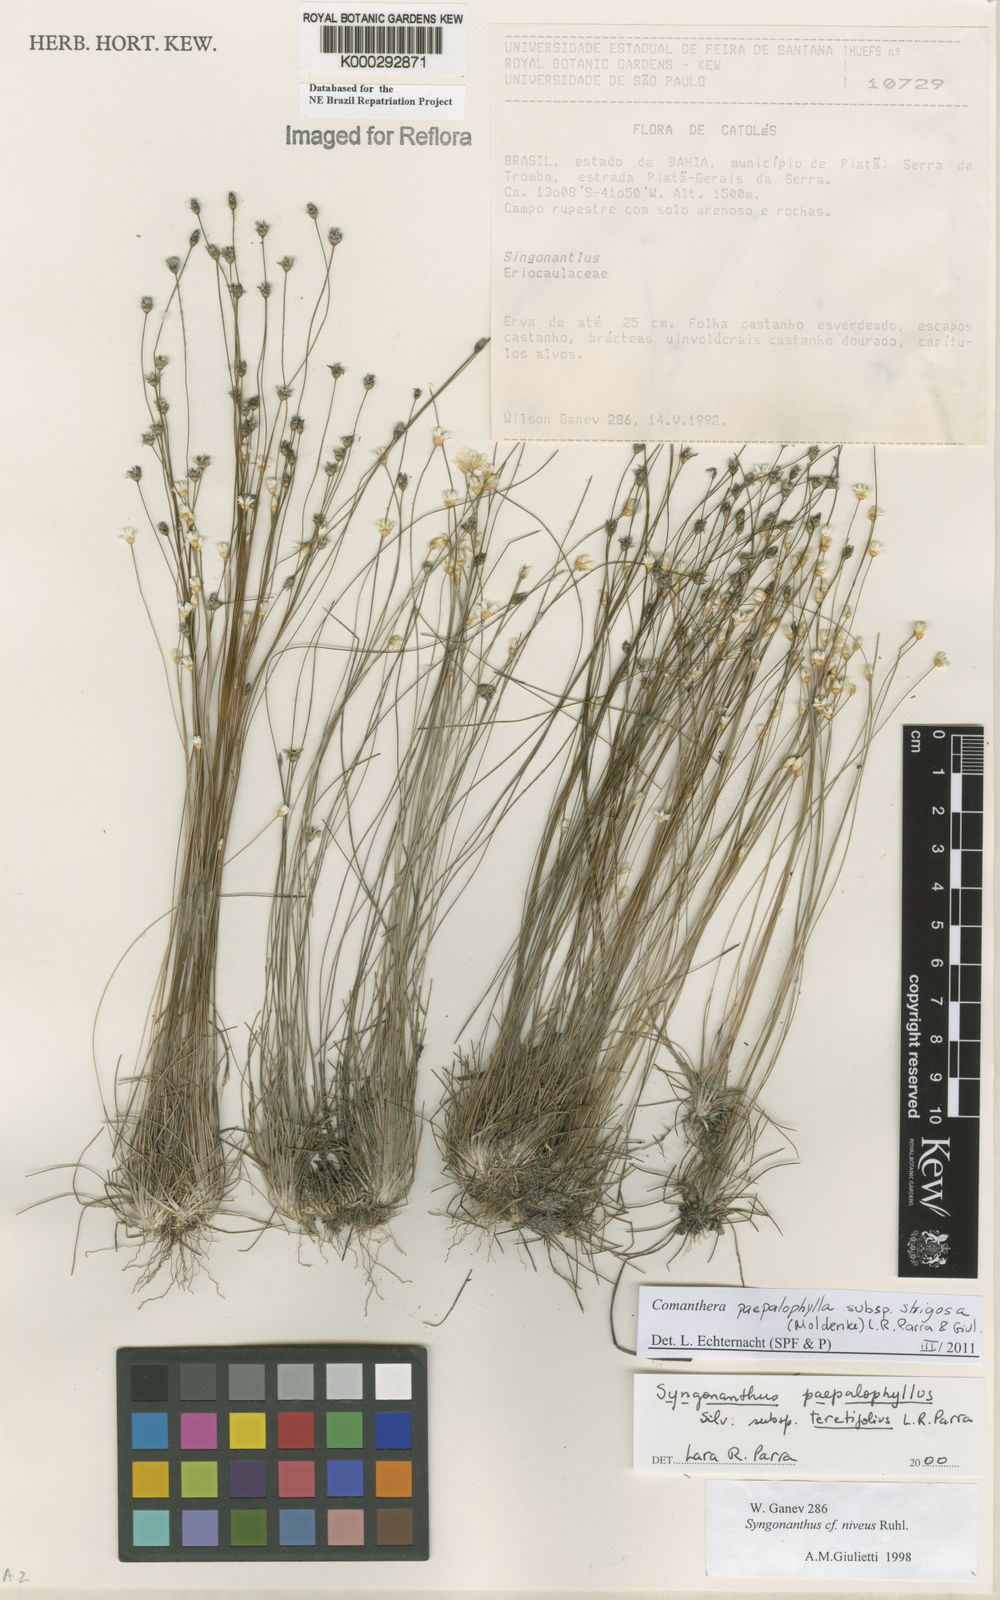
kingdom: Plantae
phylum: Tracheophyta
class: Liliopsida
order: Poales
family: Eriocaulaceae
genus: Comanthera
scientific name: Comanthera paepalophylla
